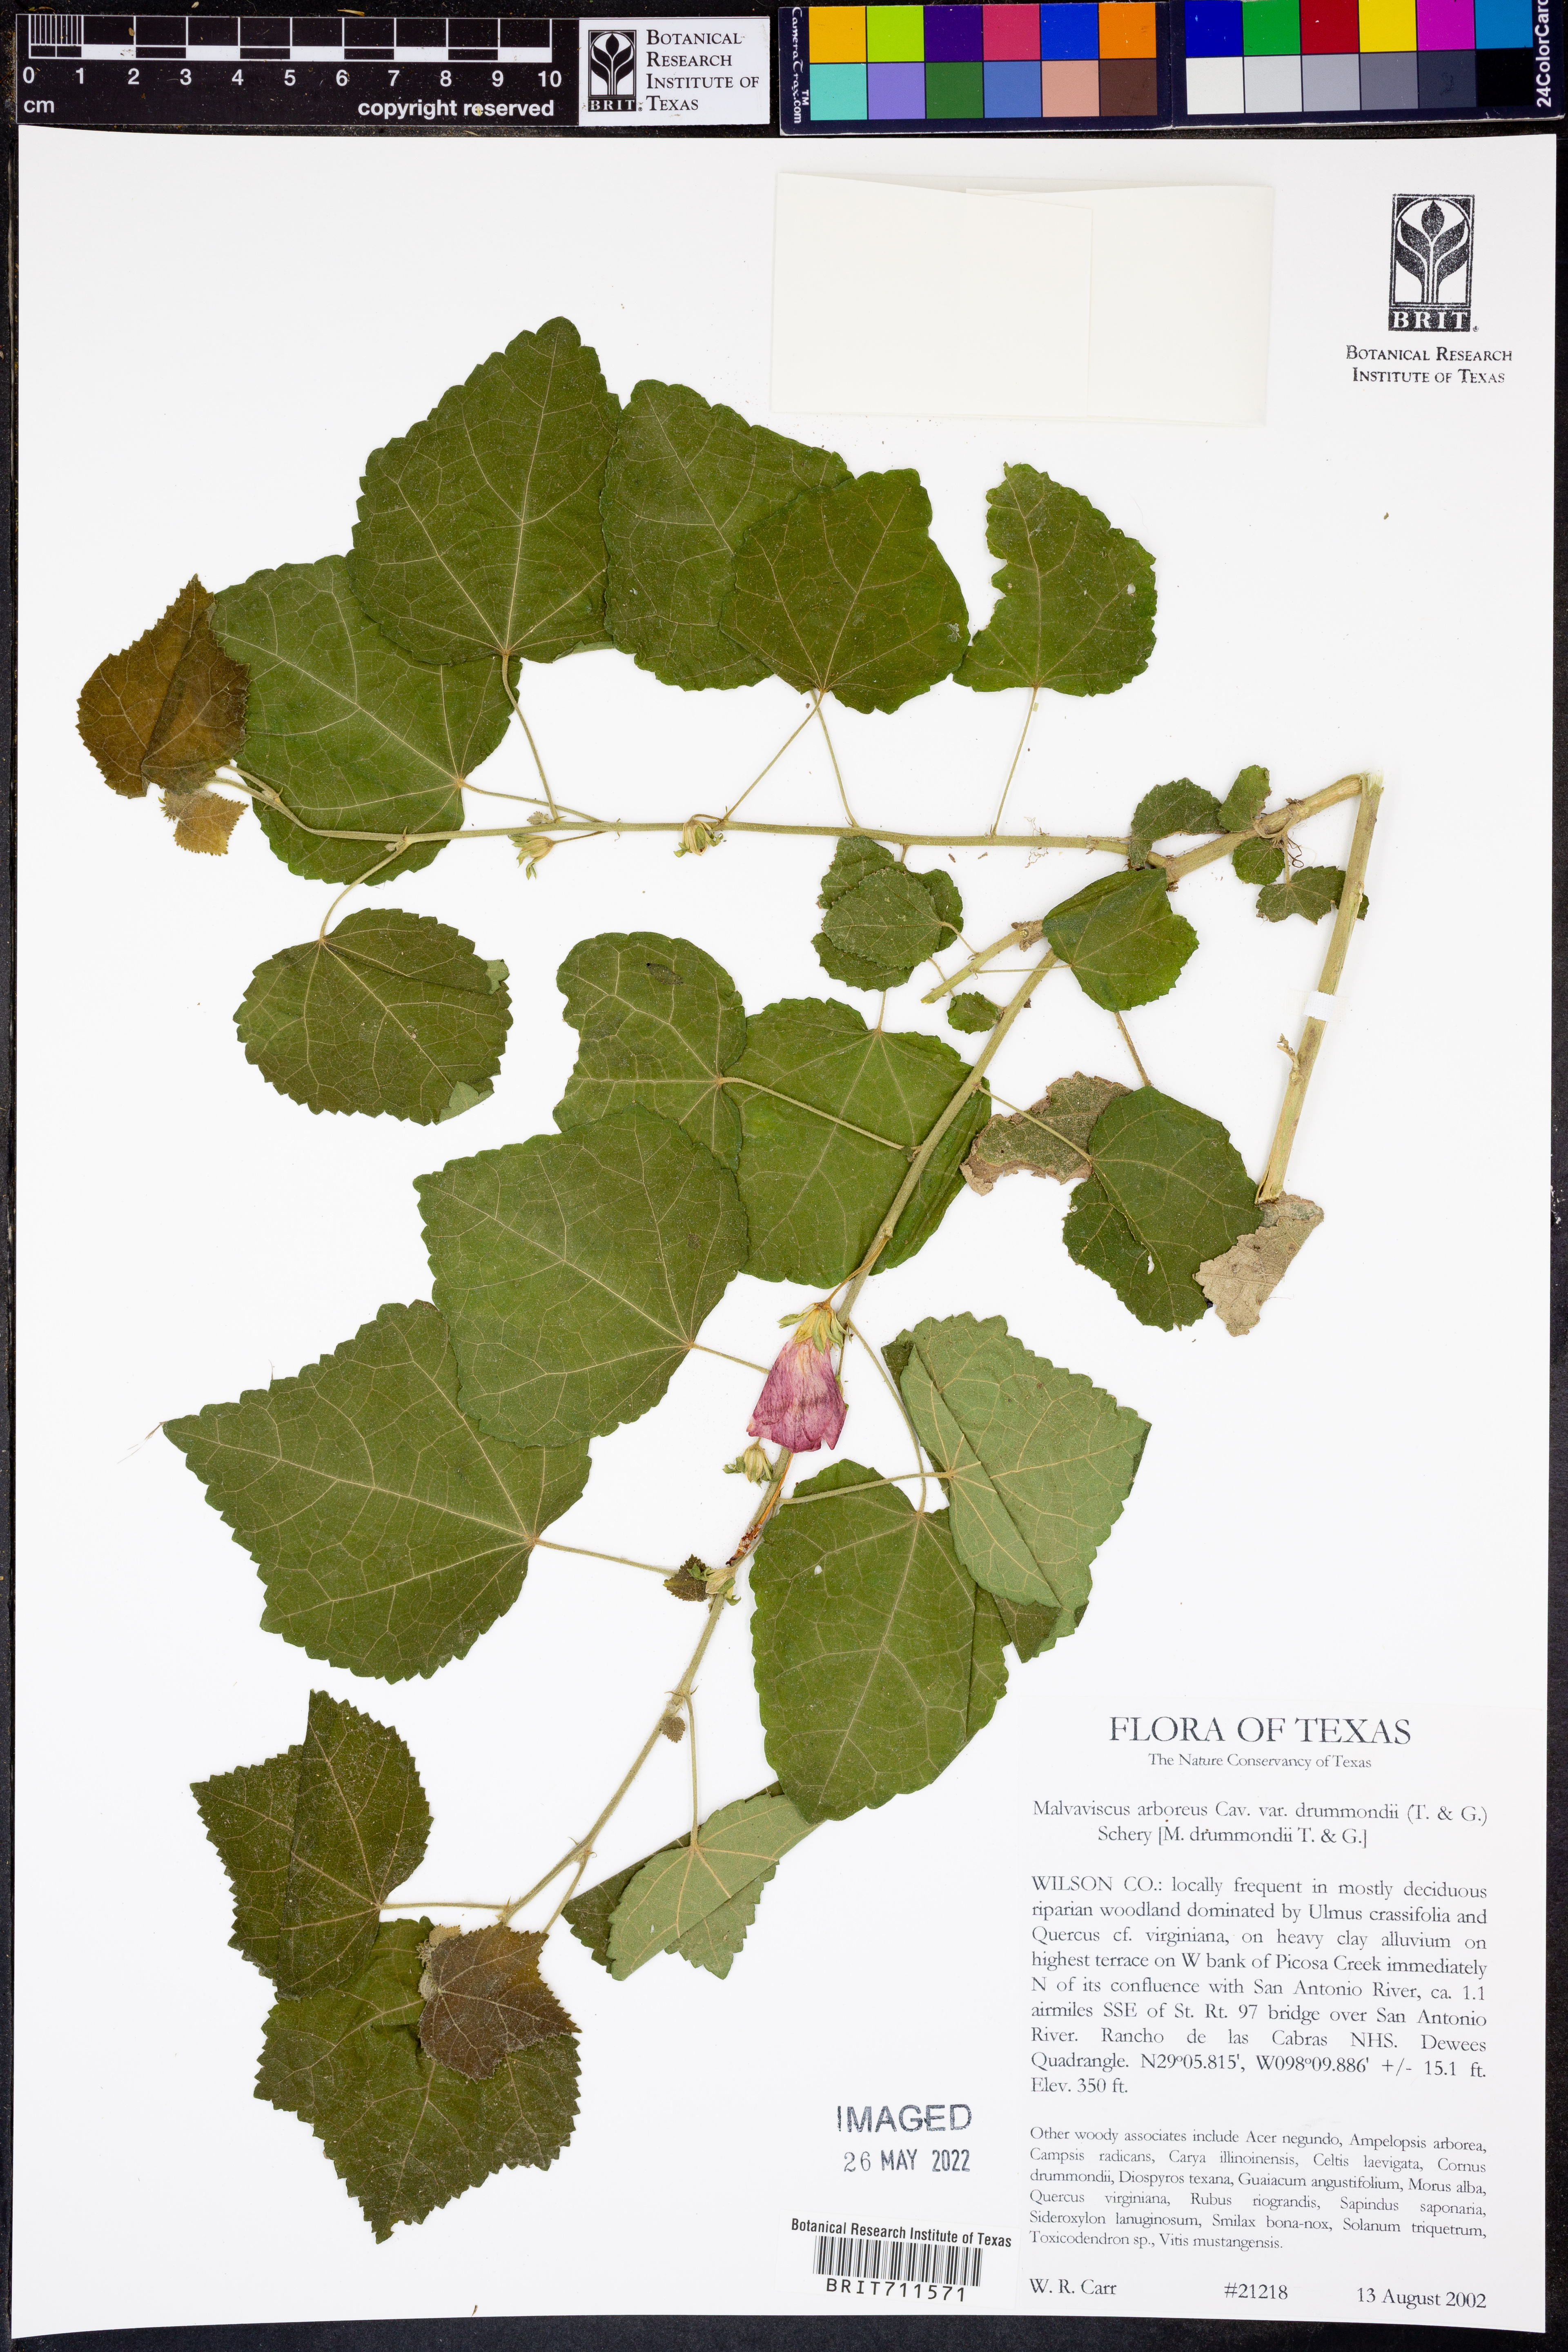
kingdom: Plantae
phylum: Tracheophyta
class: Magnoliopsida
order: Malvales
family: Malvaceae
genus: Malvaviscus
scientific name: Malvaviscus arboreus
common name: Wax mallow
